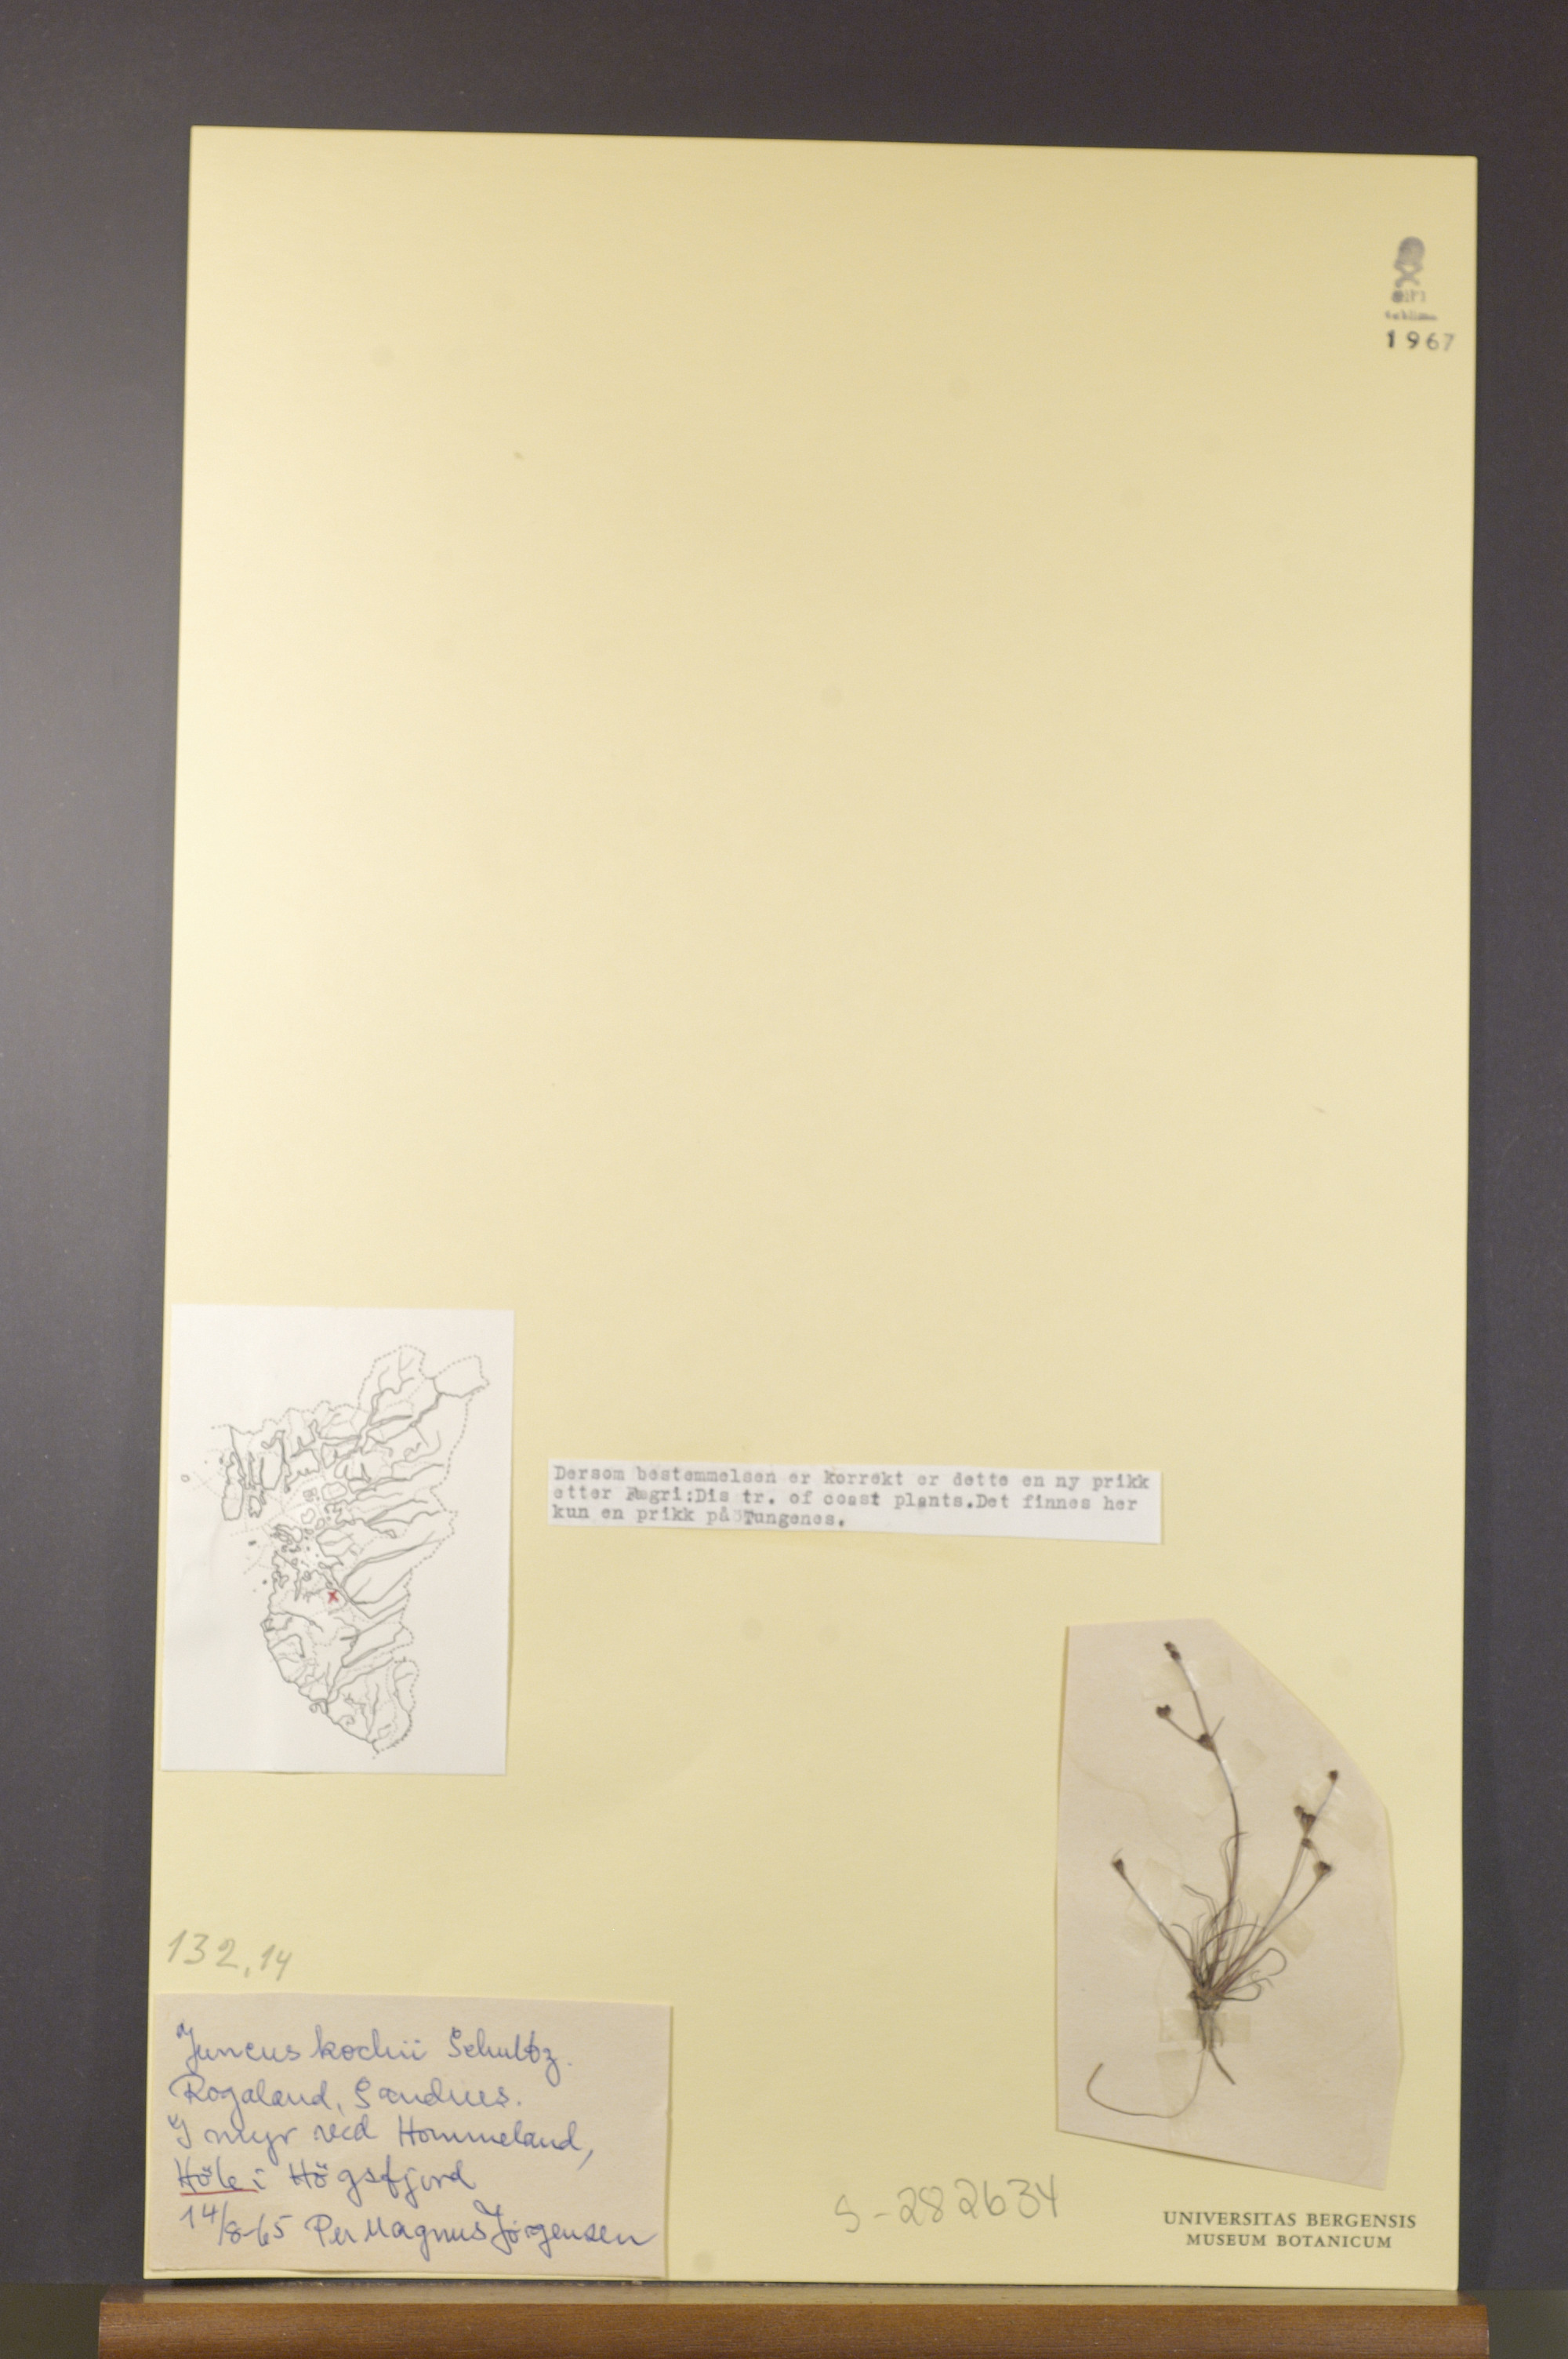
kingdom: Plantae
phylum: Tracheophyta
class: Liliopsida
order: Poales
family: Juncaceae
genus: Juncus
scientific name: Juncus bulbosus
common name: Bulbous rush
